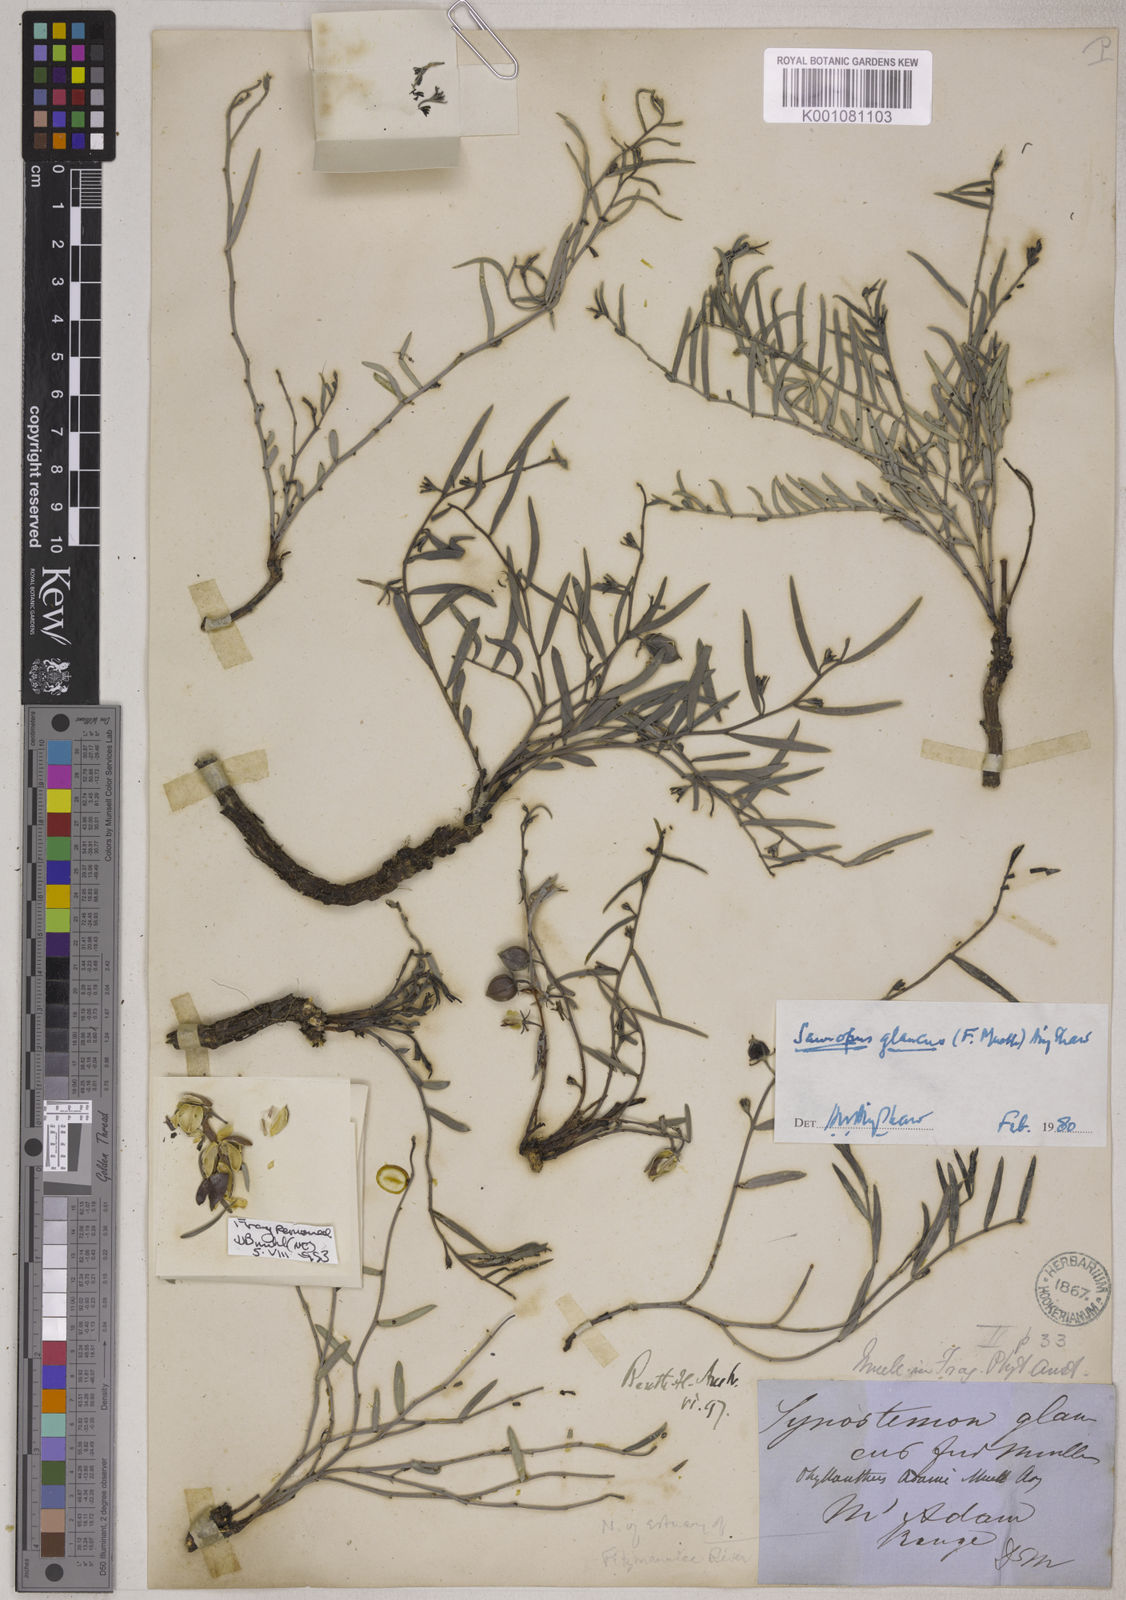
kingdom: Plantae
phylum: Tracheophyta
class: Magnoliopsida
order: Malpighiales
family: Phyllanthaceae
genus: Synostemon
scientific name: Synostemon glaucus
